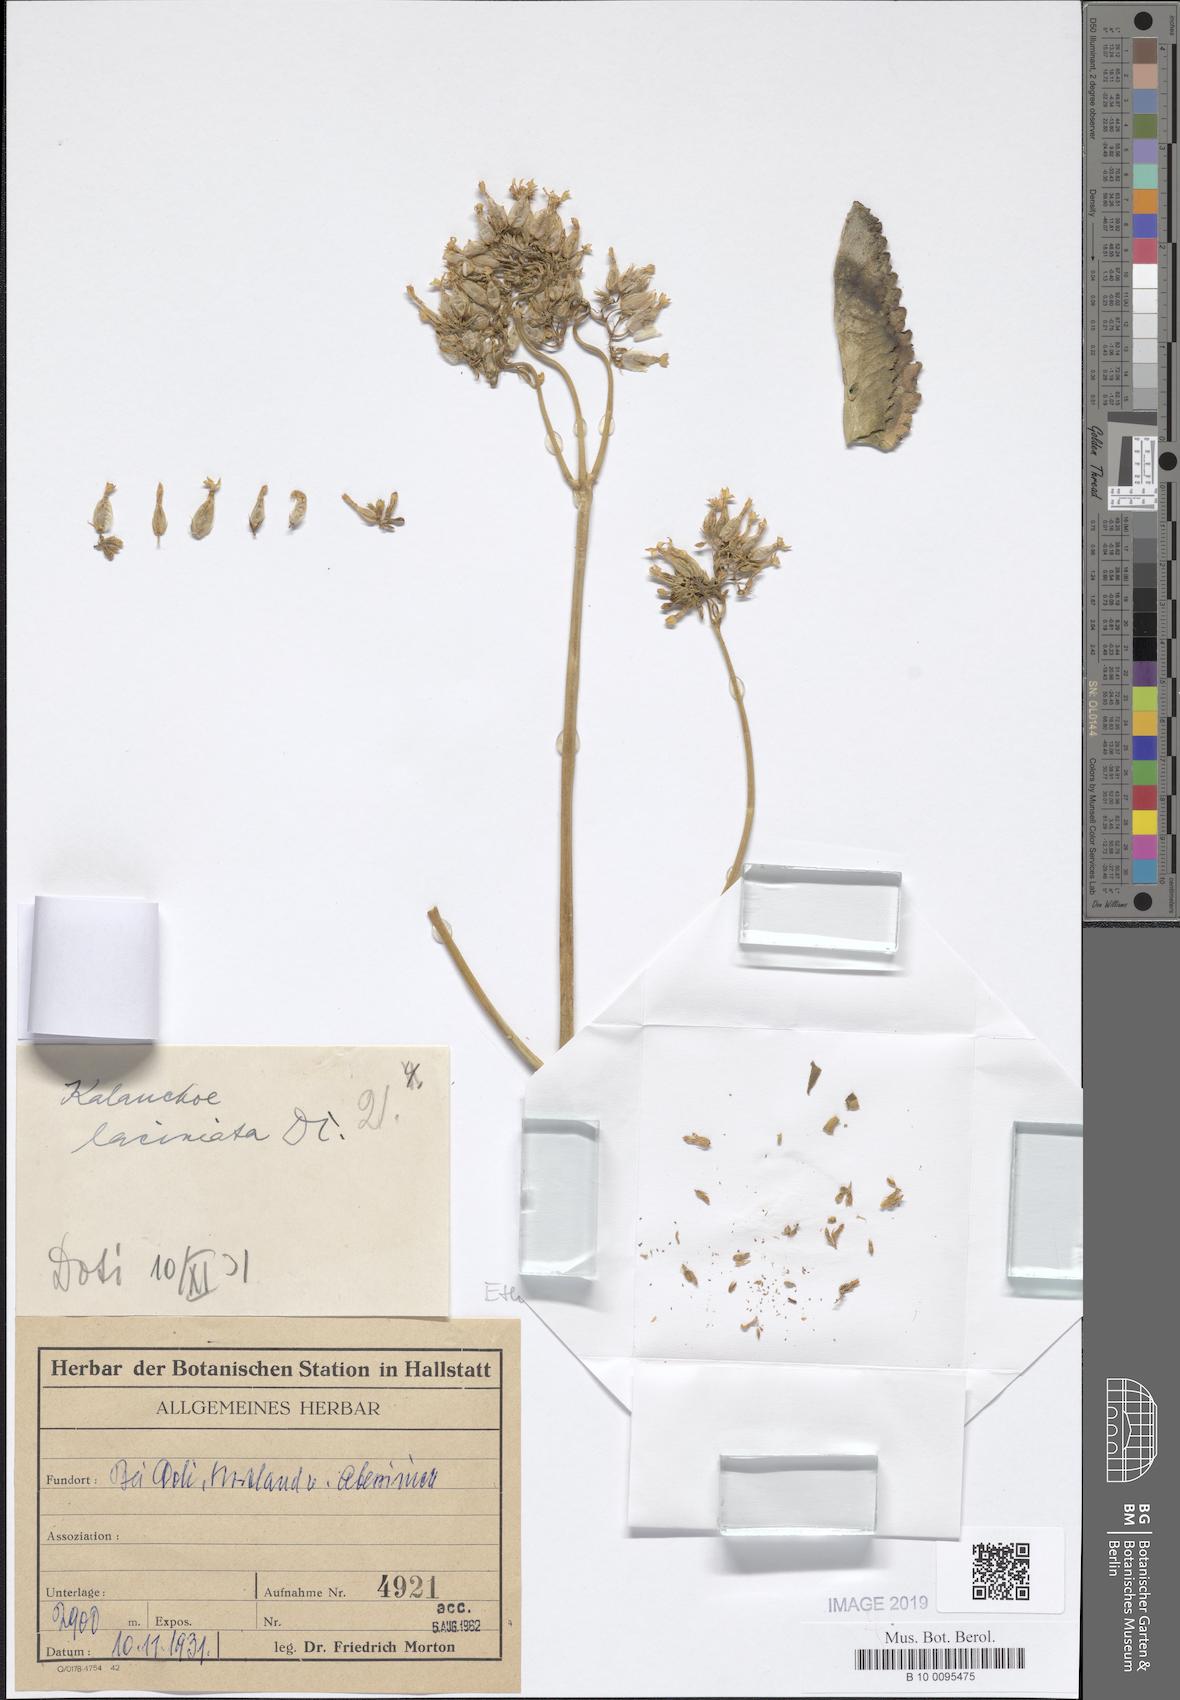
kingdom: Plantae
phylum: Tracheophyta
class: Magnoliopsida
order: Saxifragales
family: Crassulaceae
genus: Kalanchoe
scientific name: Kalanchoe crenata
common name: Neverdie
